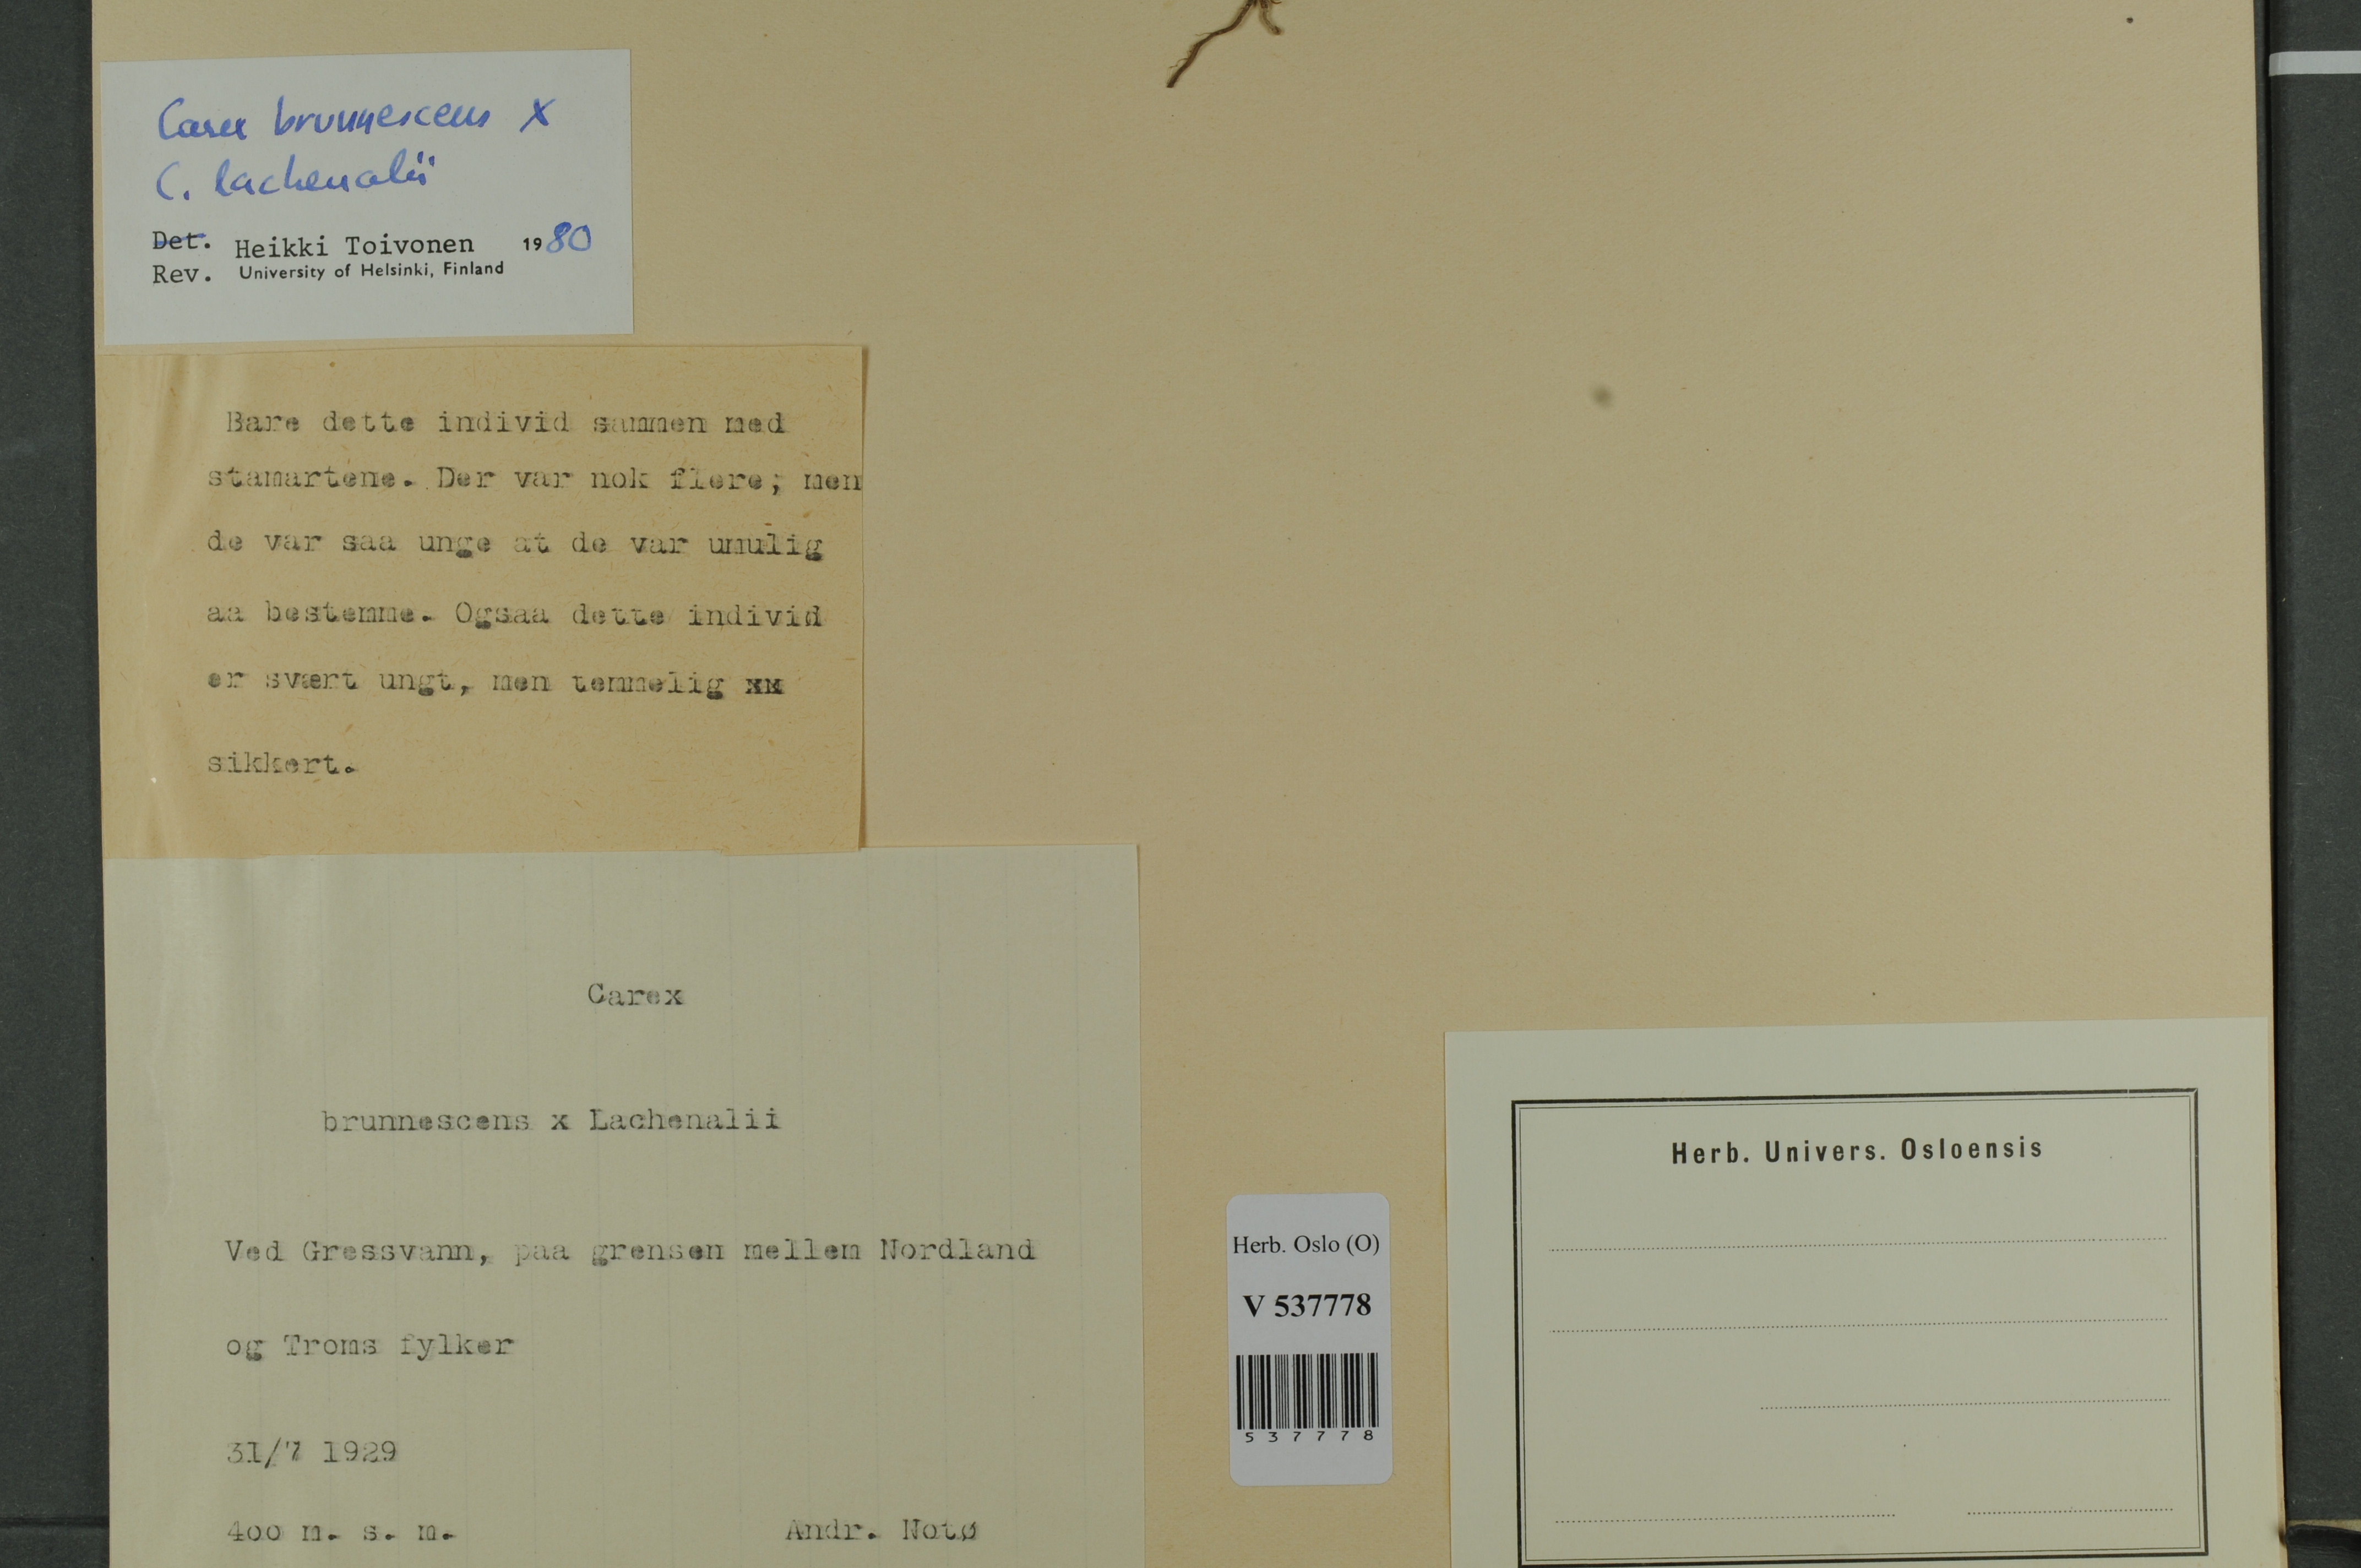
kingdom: Plantae
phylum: Tracheophyta
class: Liliopsida
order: Poales
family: Cyperaceae
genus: Carex
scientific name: Carex
